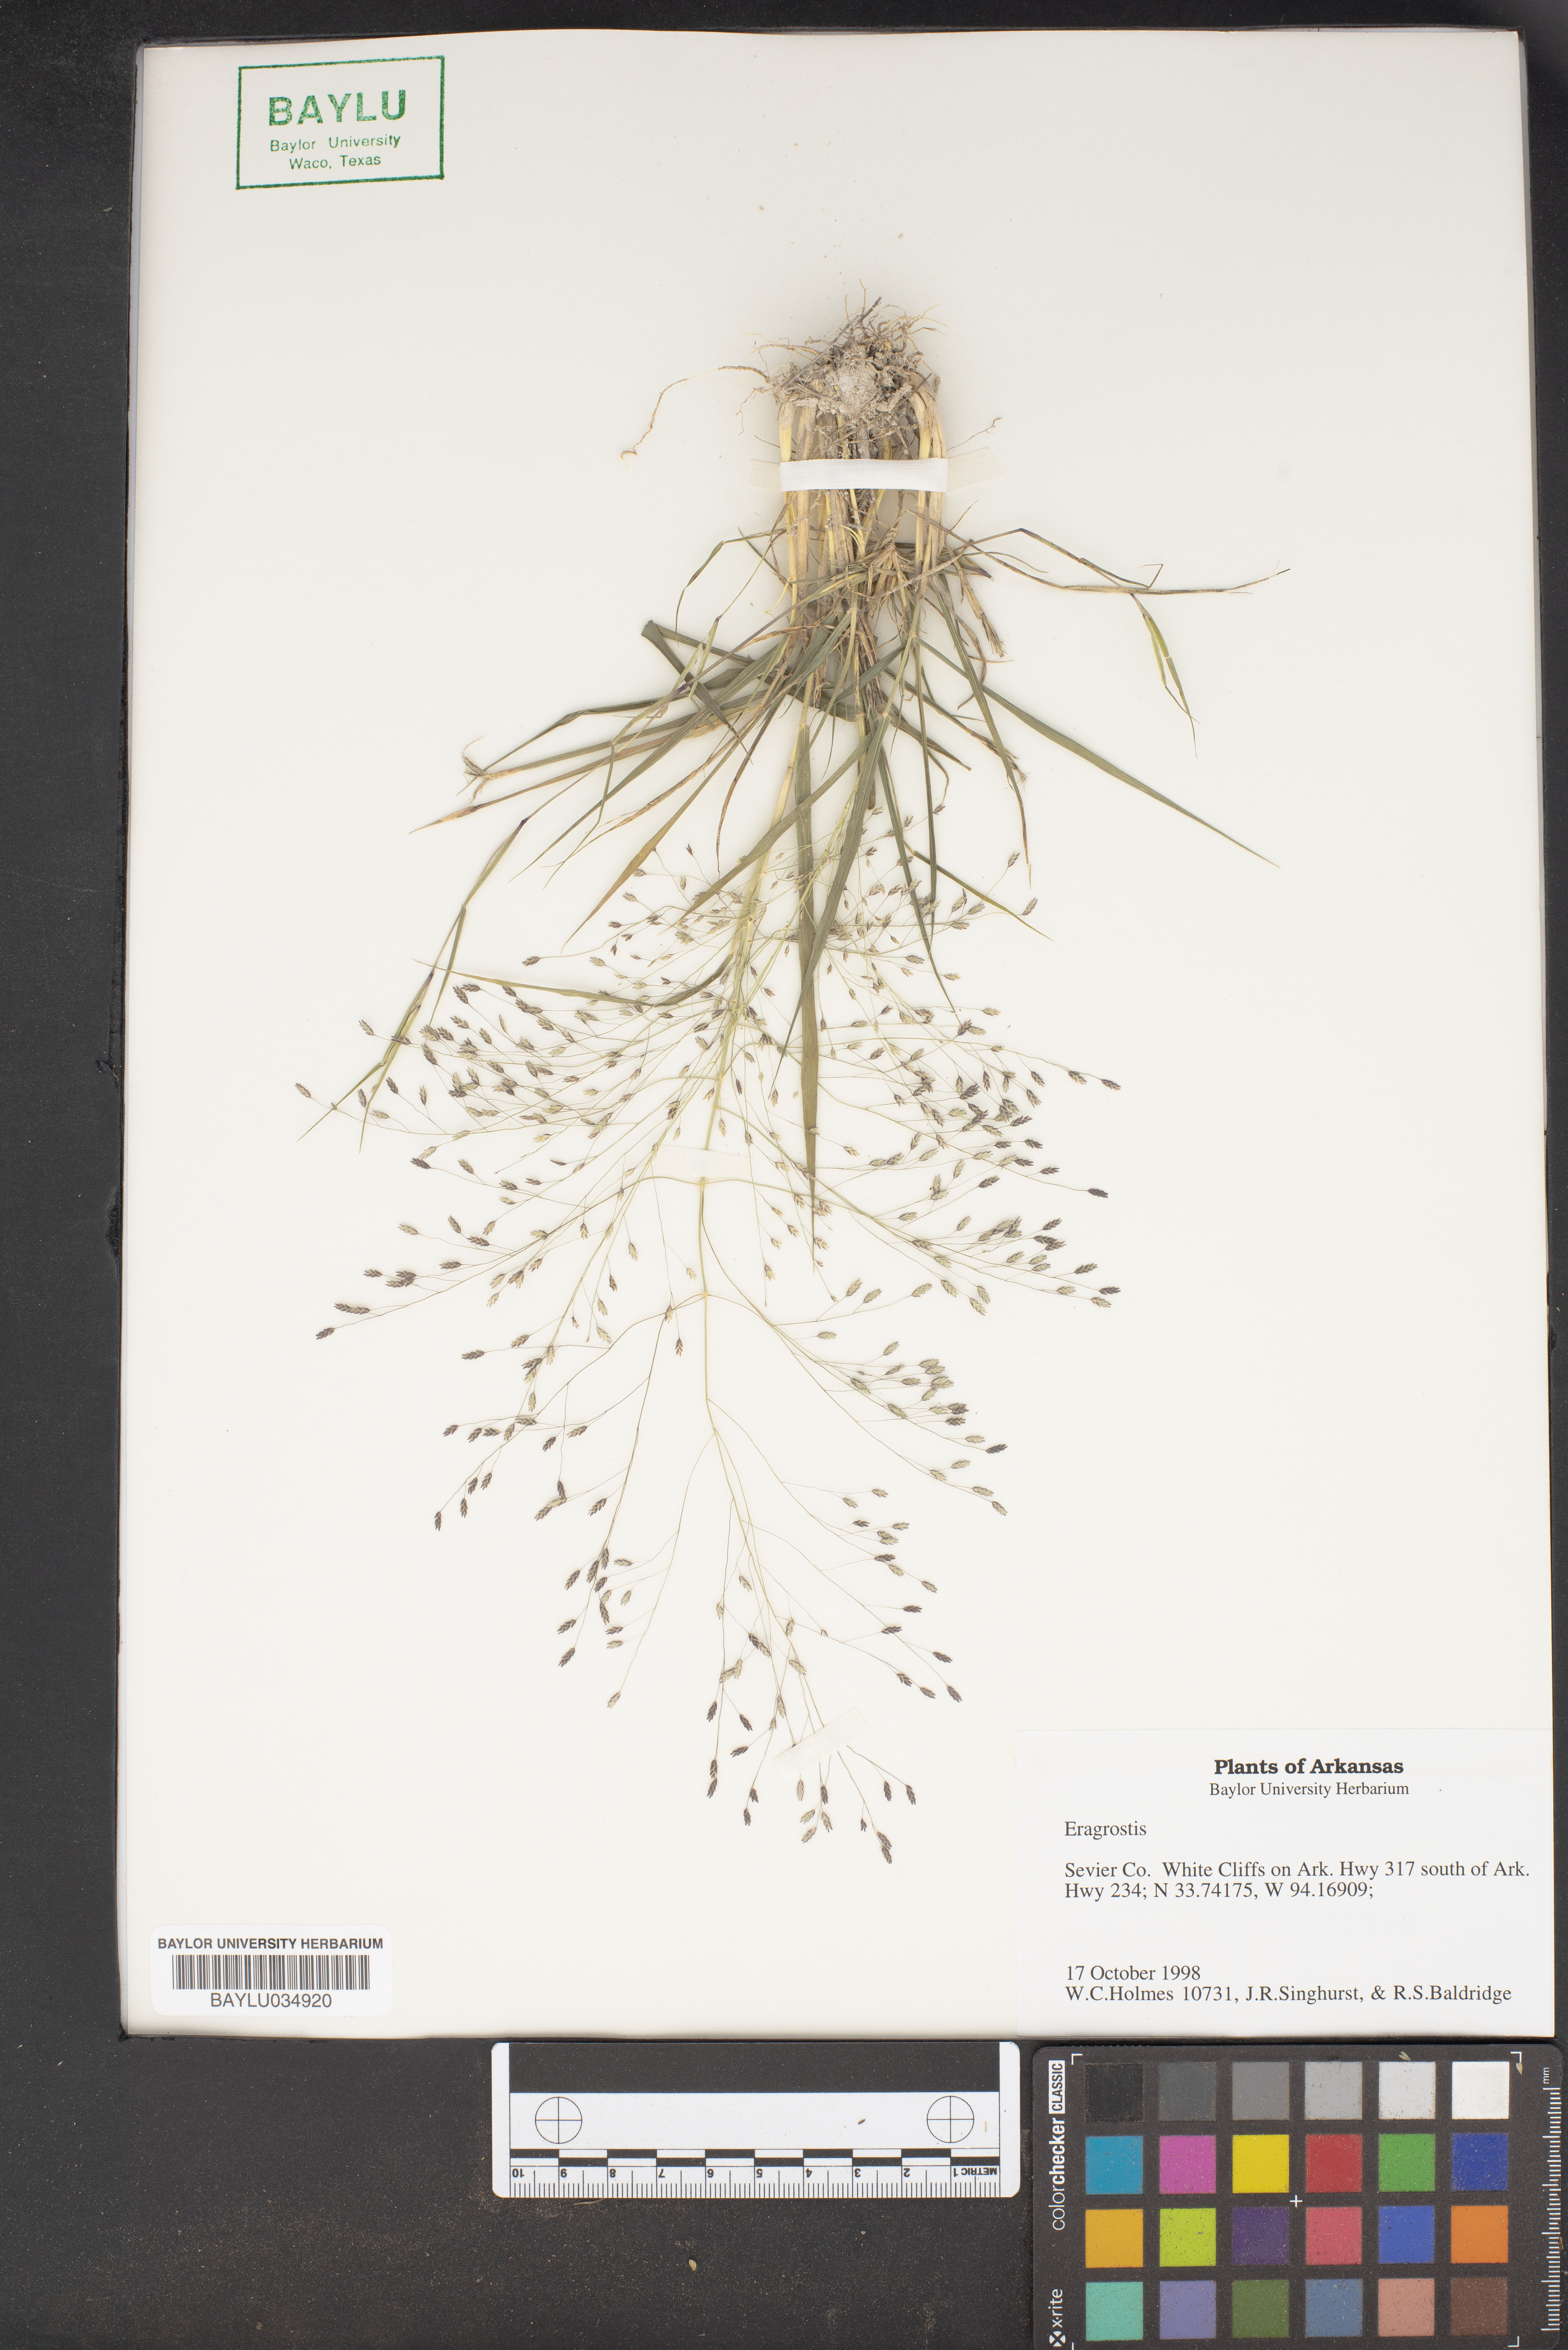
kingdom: Plantae
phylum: Tracheophyta
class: Liliopsida
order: Poales
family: Poaceae
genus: Eragrostis
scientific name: Eragrostis
